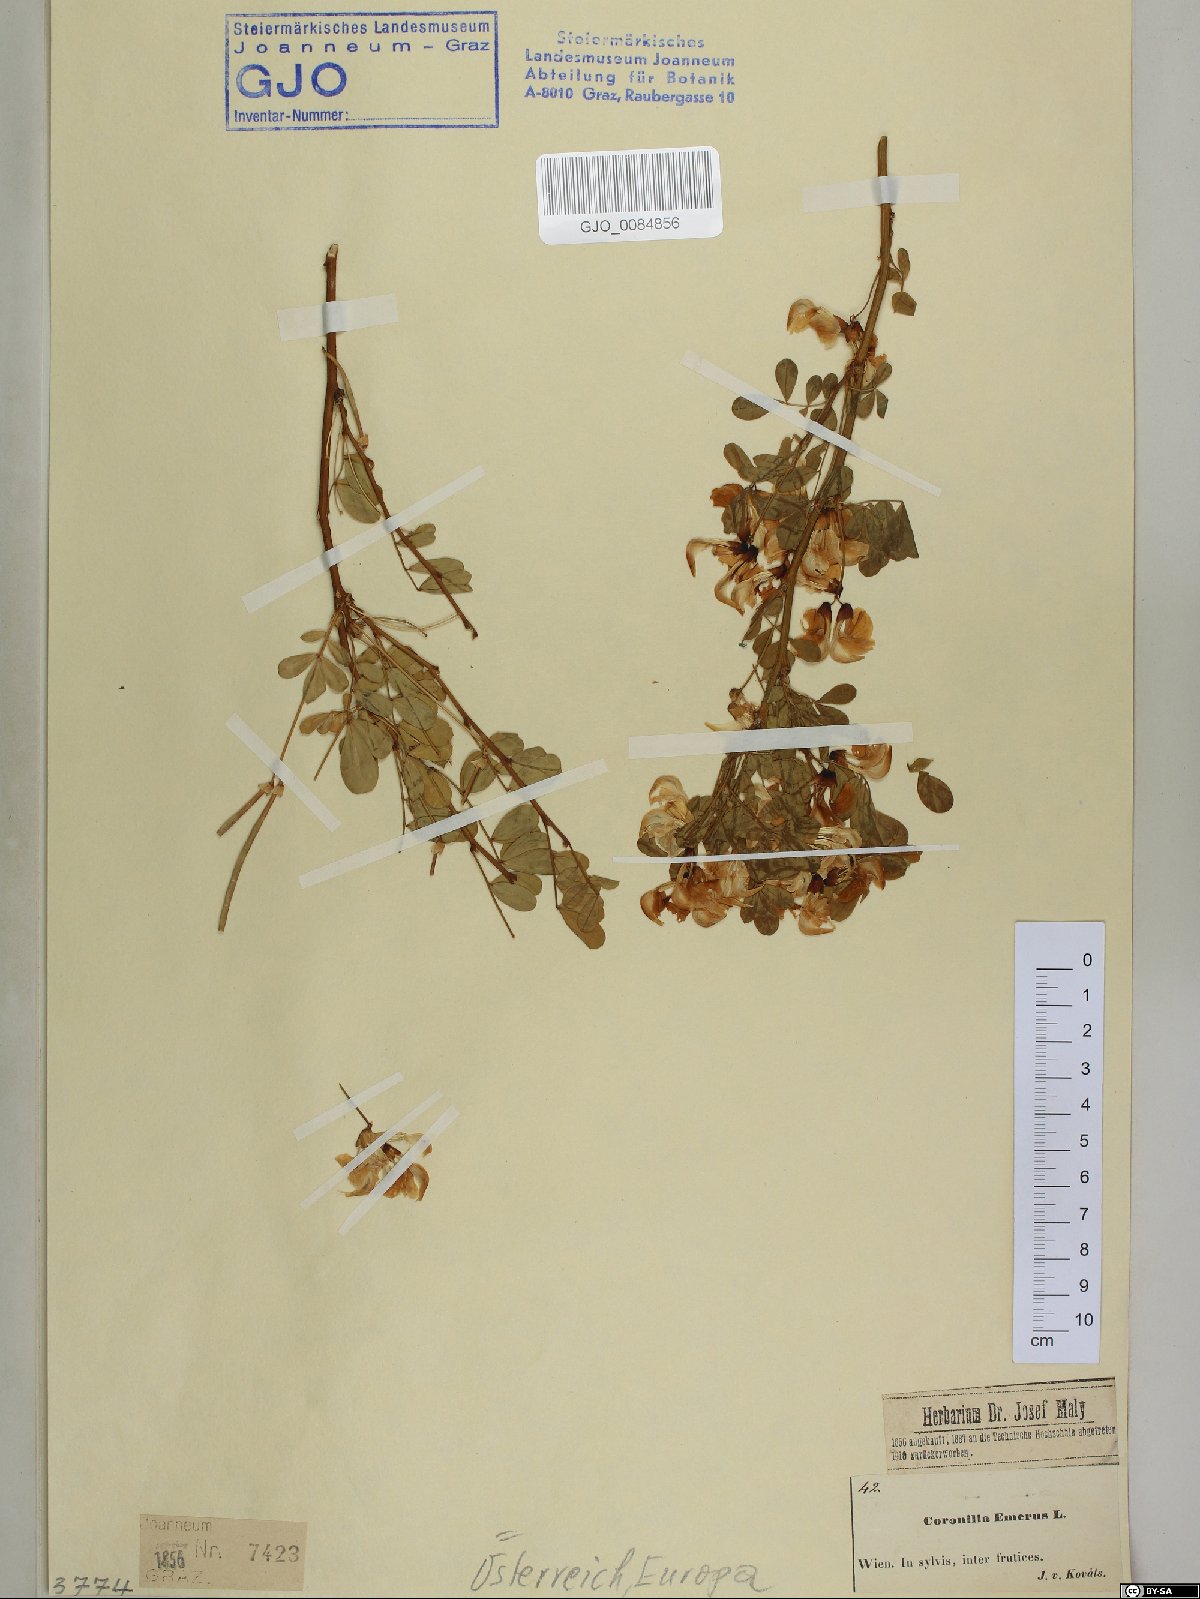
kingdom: Plantae
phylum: Tracheophyta
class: Magnoliopsida
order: Fabales
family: Fabaceae
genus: Hippocrepis
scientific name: Hippocrepis emerus
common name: Scorpion senna
